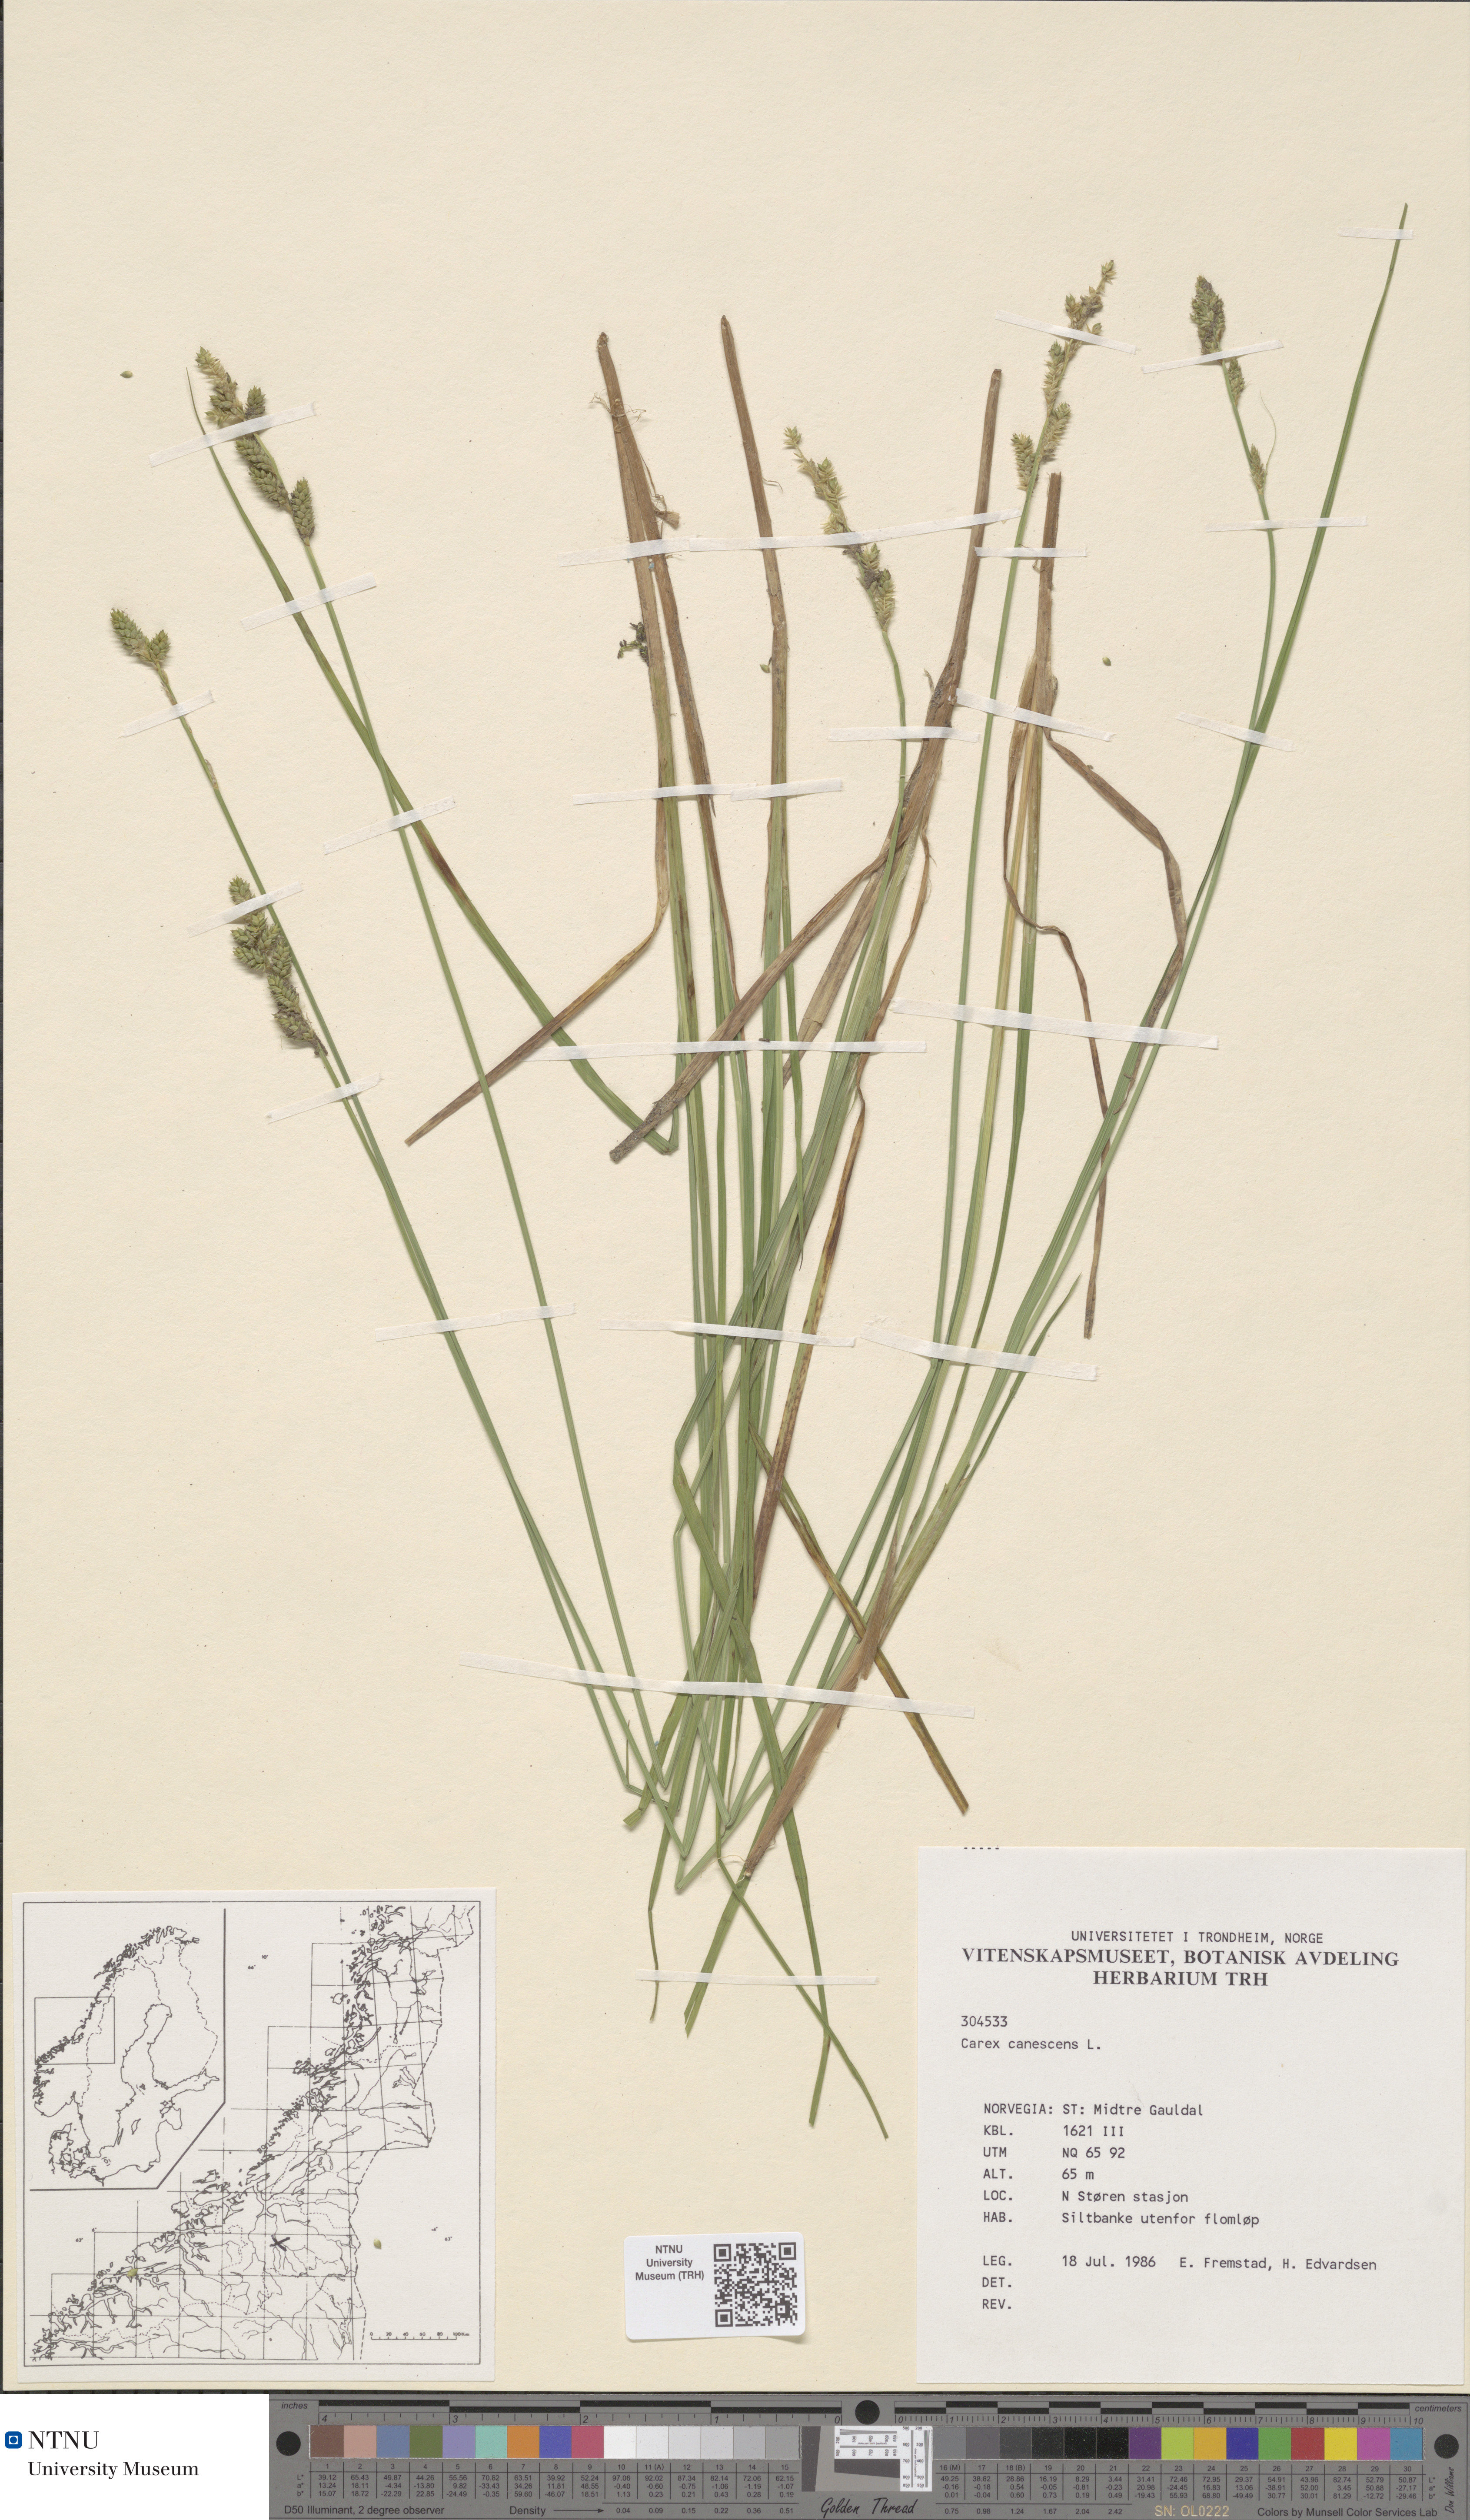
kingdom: Plantae
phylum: Tracheophyta
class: Liliopsida
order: Poales
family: Cyperaceae
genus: Carex
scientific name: Carex canescens
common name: White sedge
